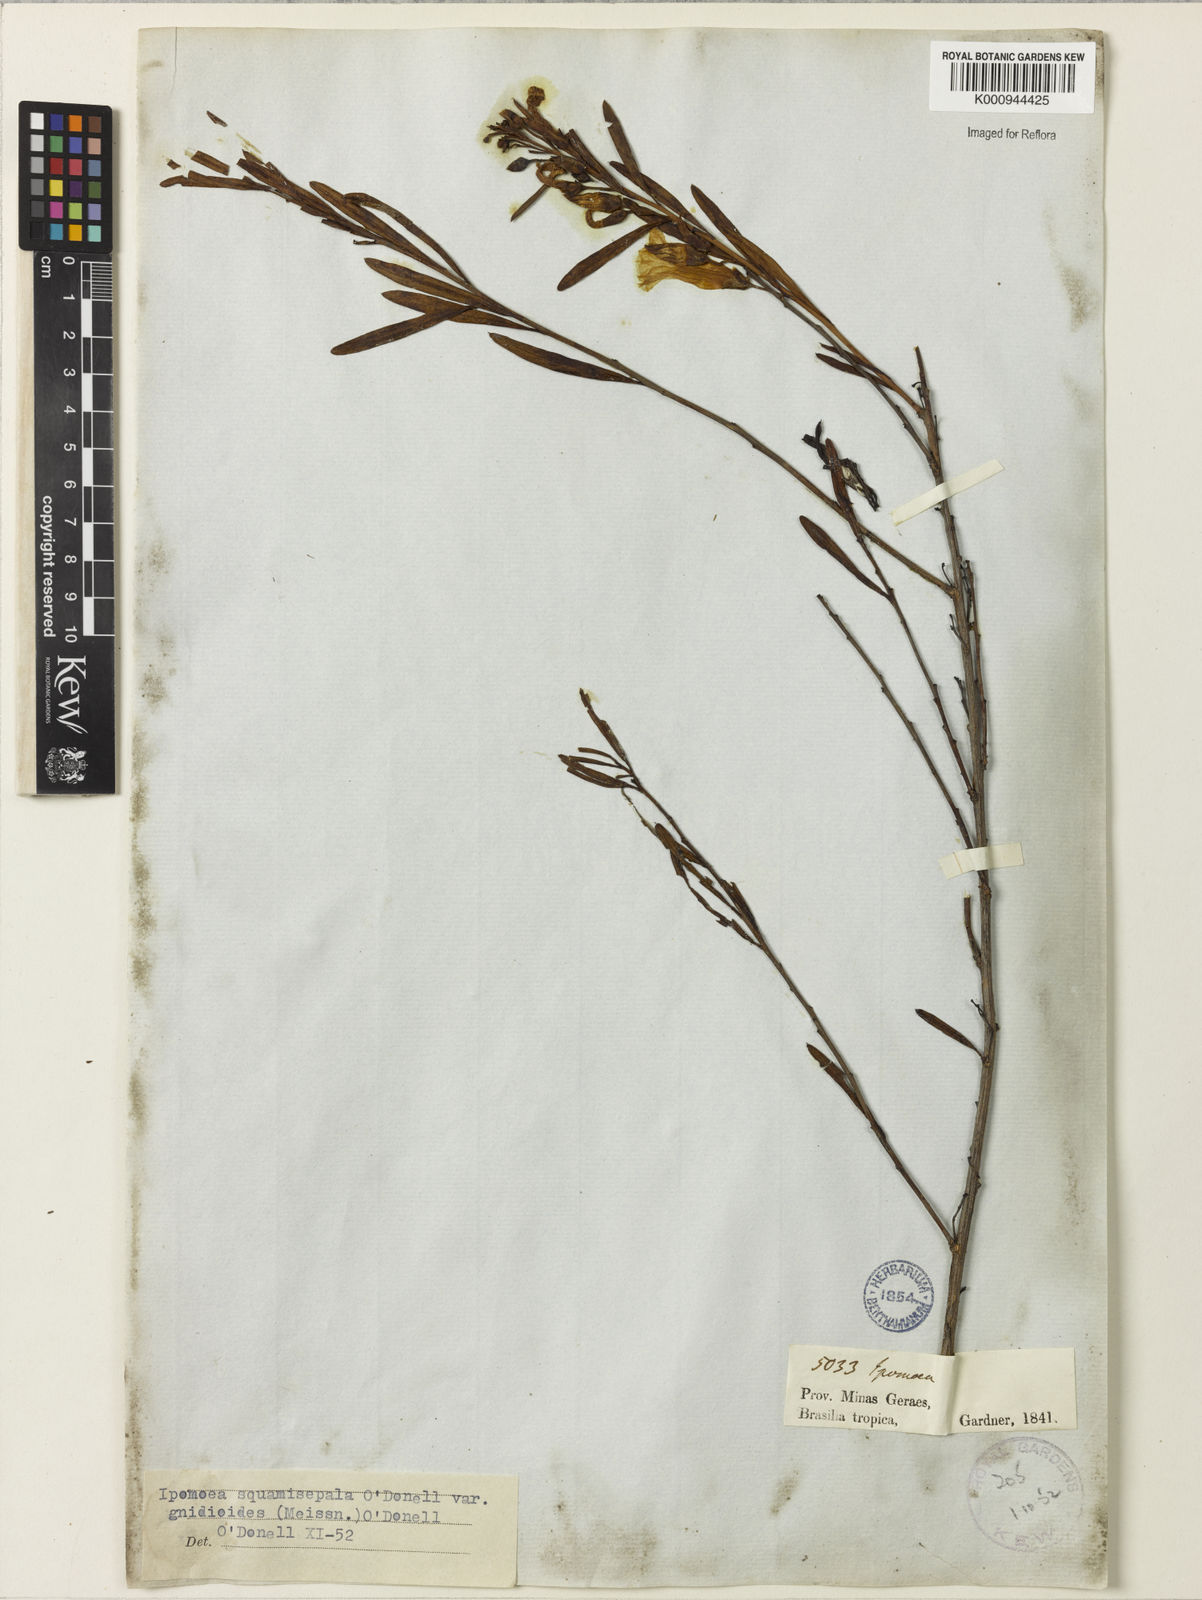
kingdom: Plantae
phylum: Tracheophyta
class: Magnoliopsida
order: Solanales
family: Convolvulaceae
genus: Ipomoea
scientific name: Ipomoea squamisepala
